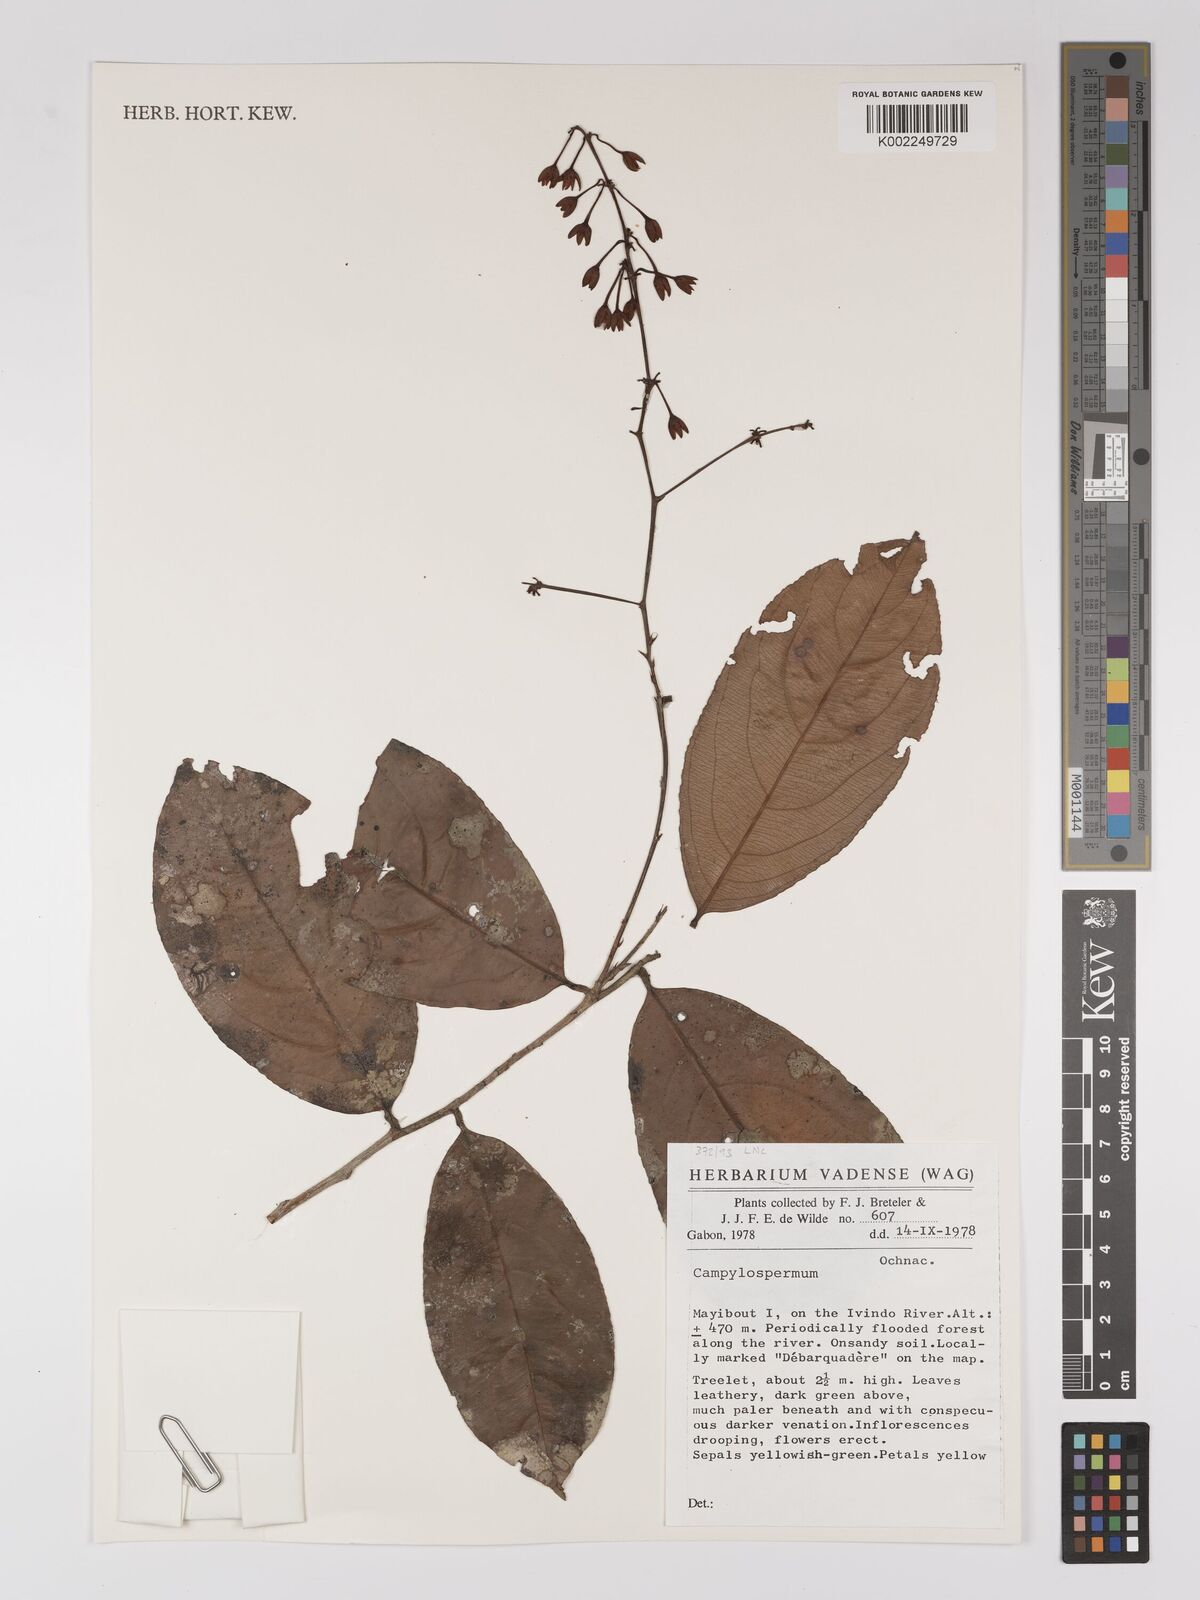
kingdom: Plantae
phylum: Tracheophyta
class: Magnoliopsida
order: Malpighiales
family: Ochnaceae
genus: Campylospermum
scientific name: Campylospermum
